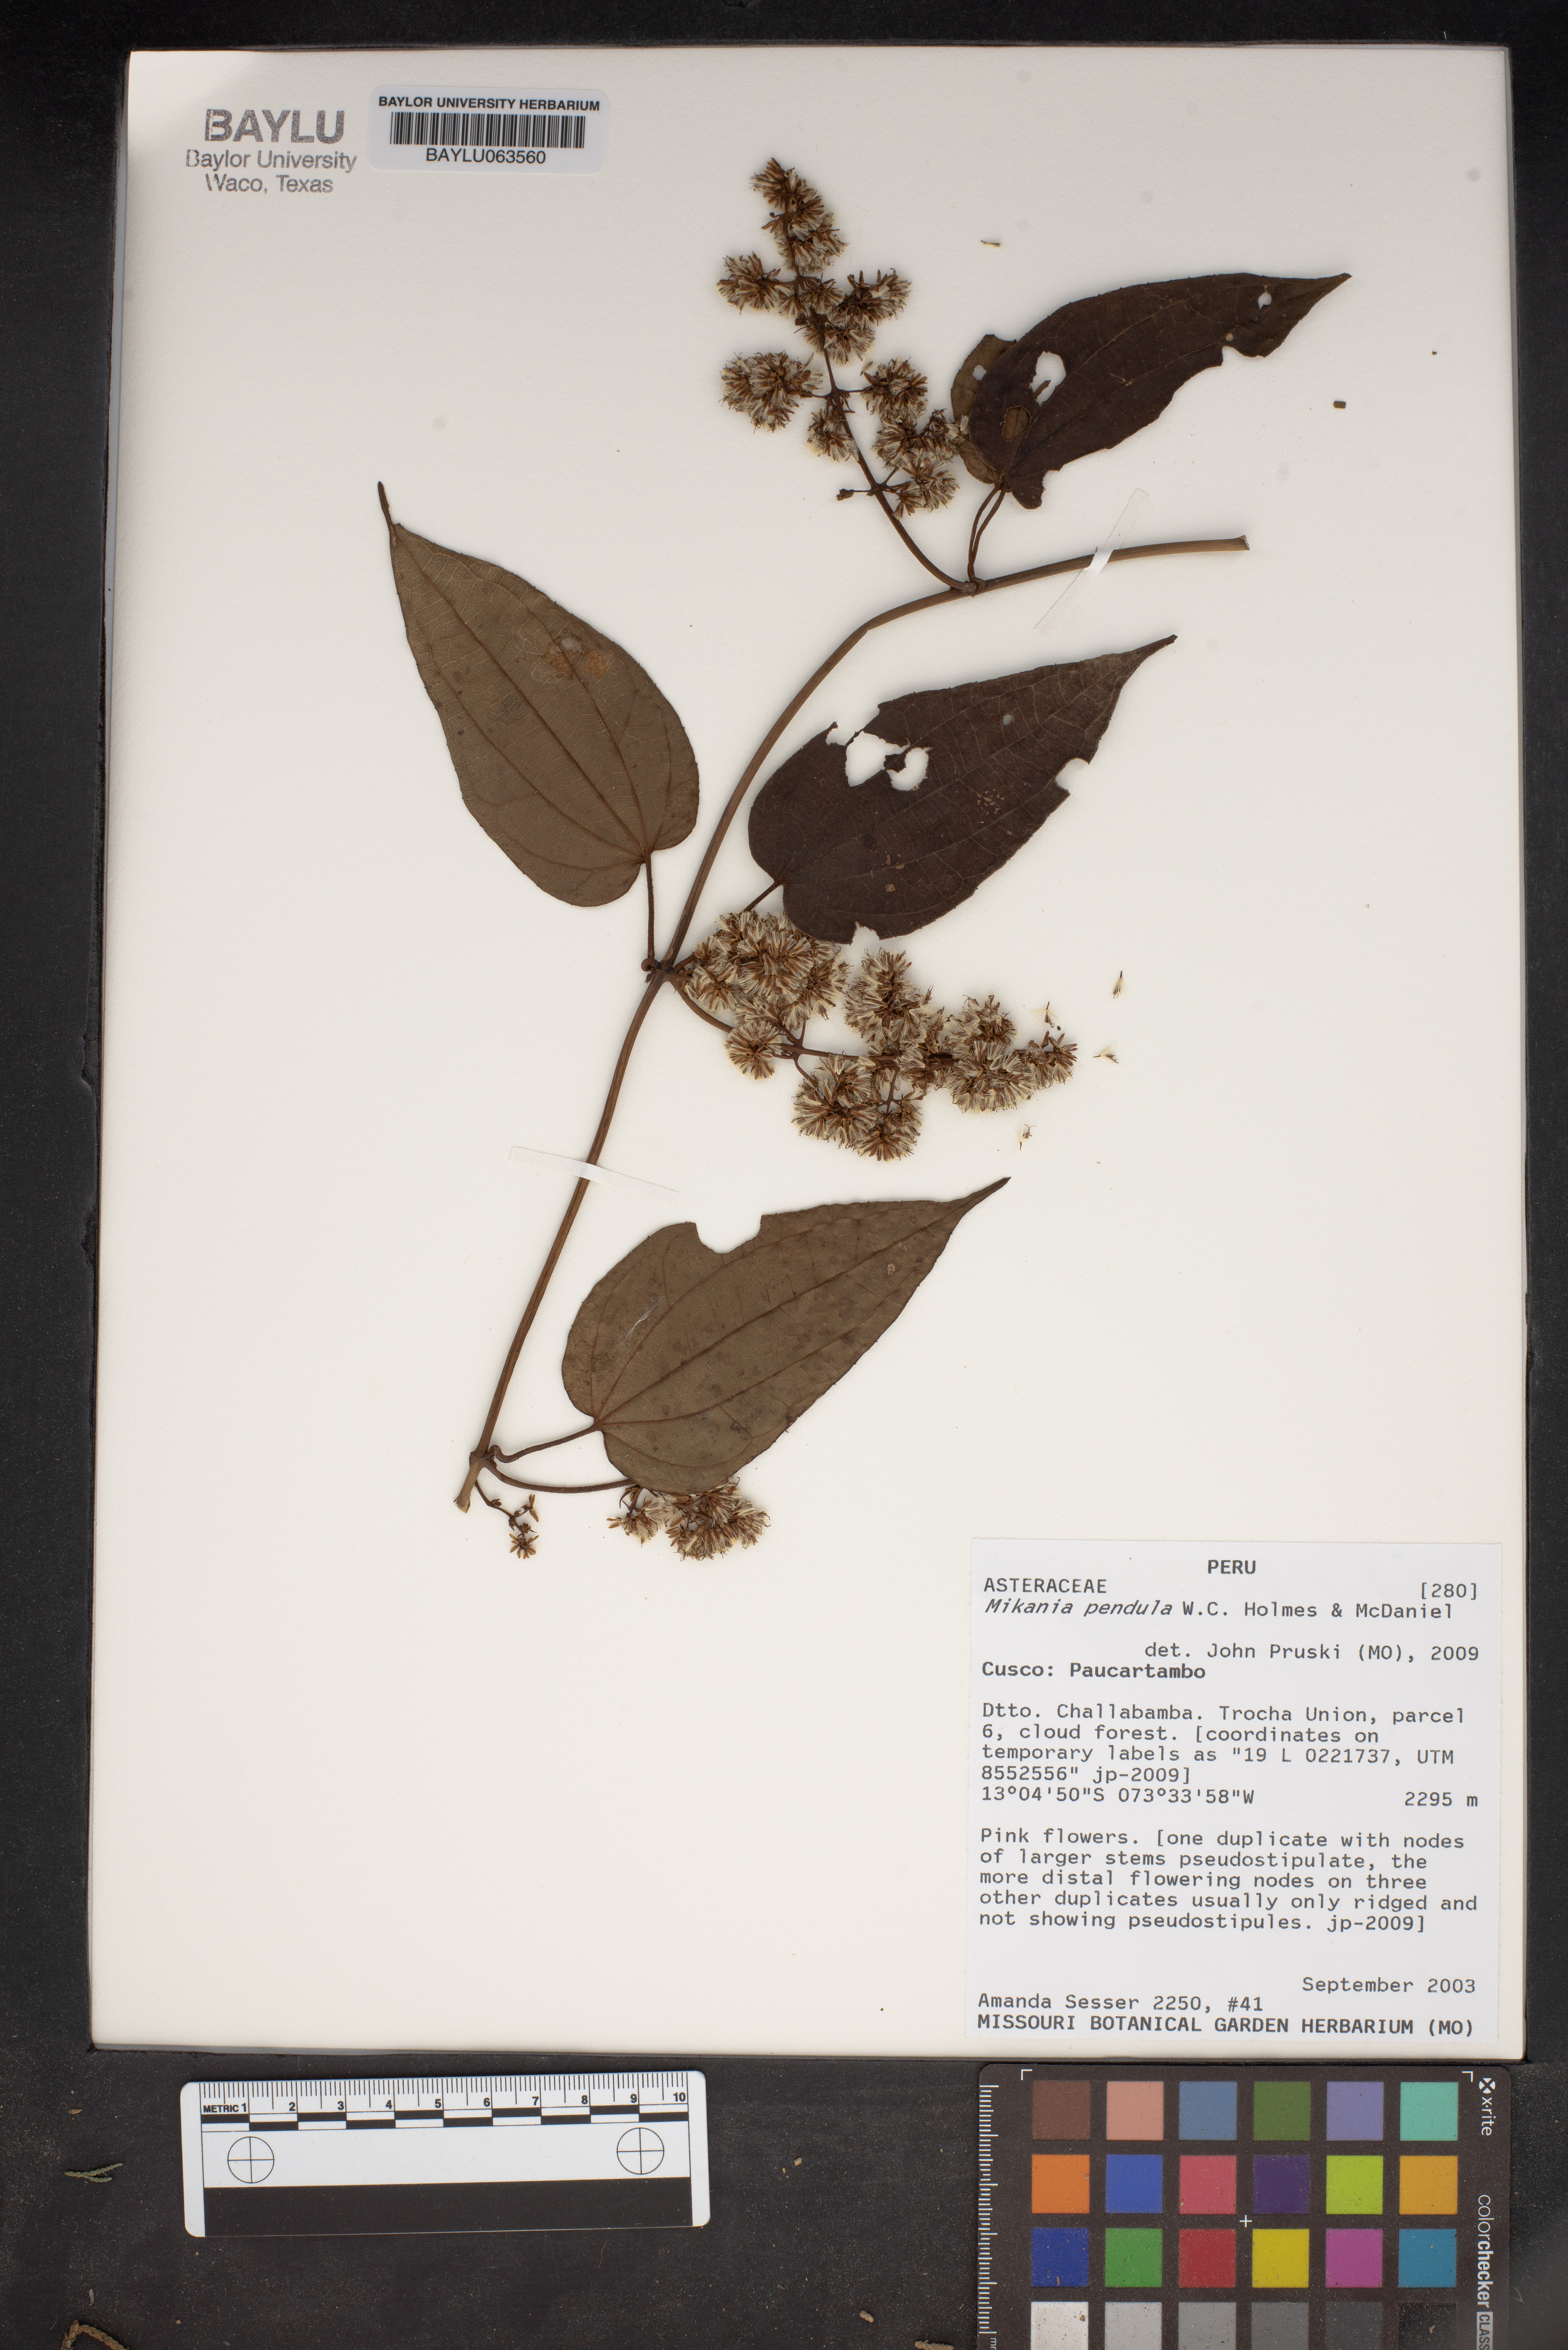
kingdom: Plantae
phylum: Tracheophyta
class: Magnoliopsida
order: Asterales
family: Asteraceae
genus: Mikania
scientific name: Mikania pendula
